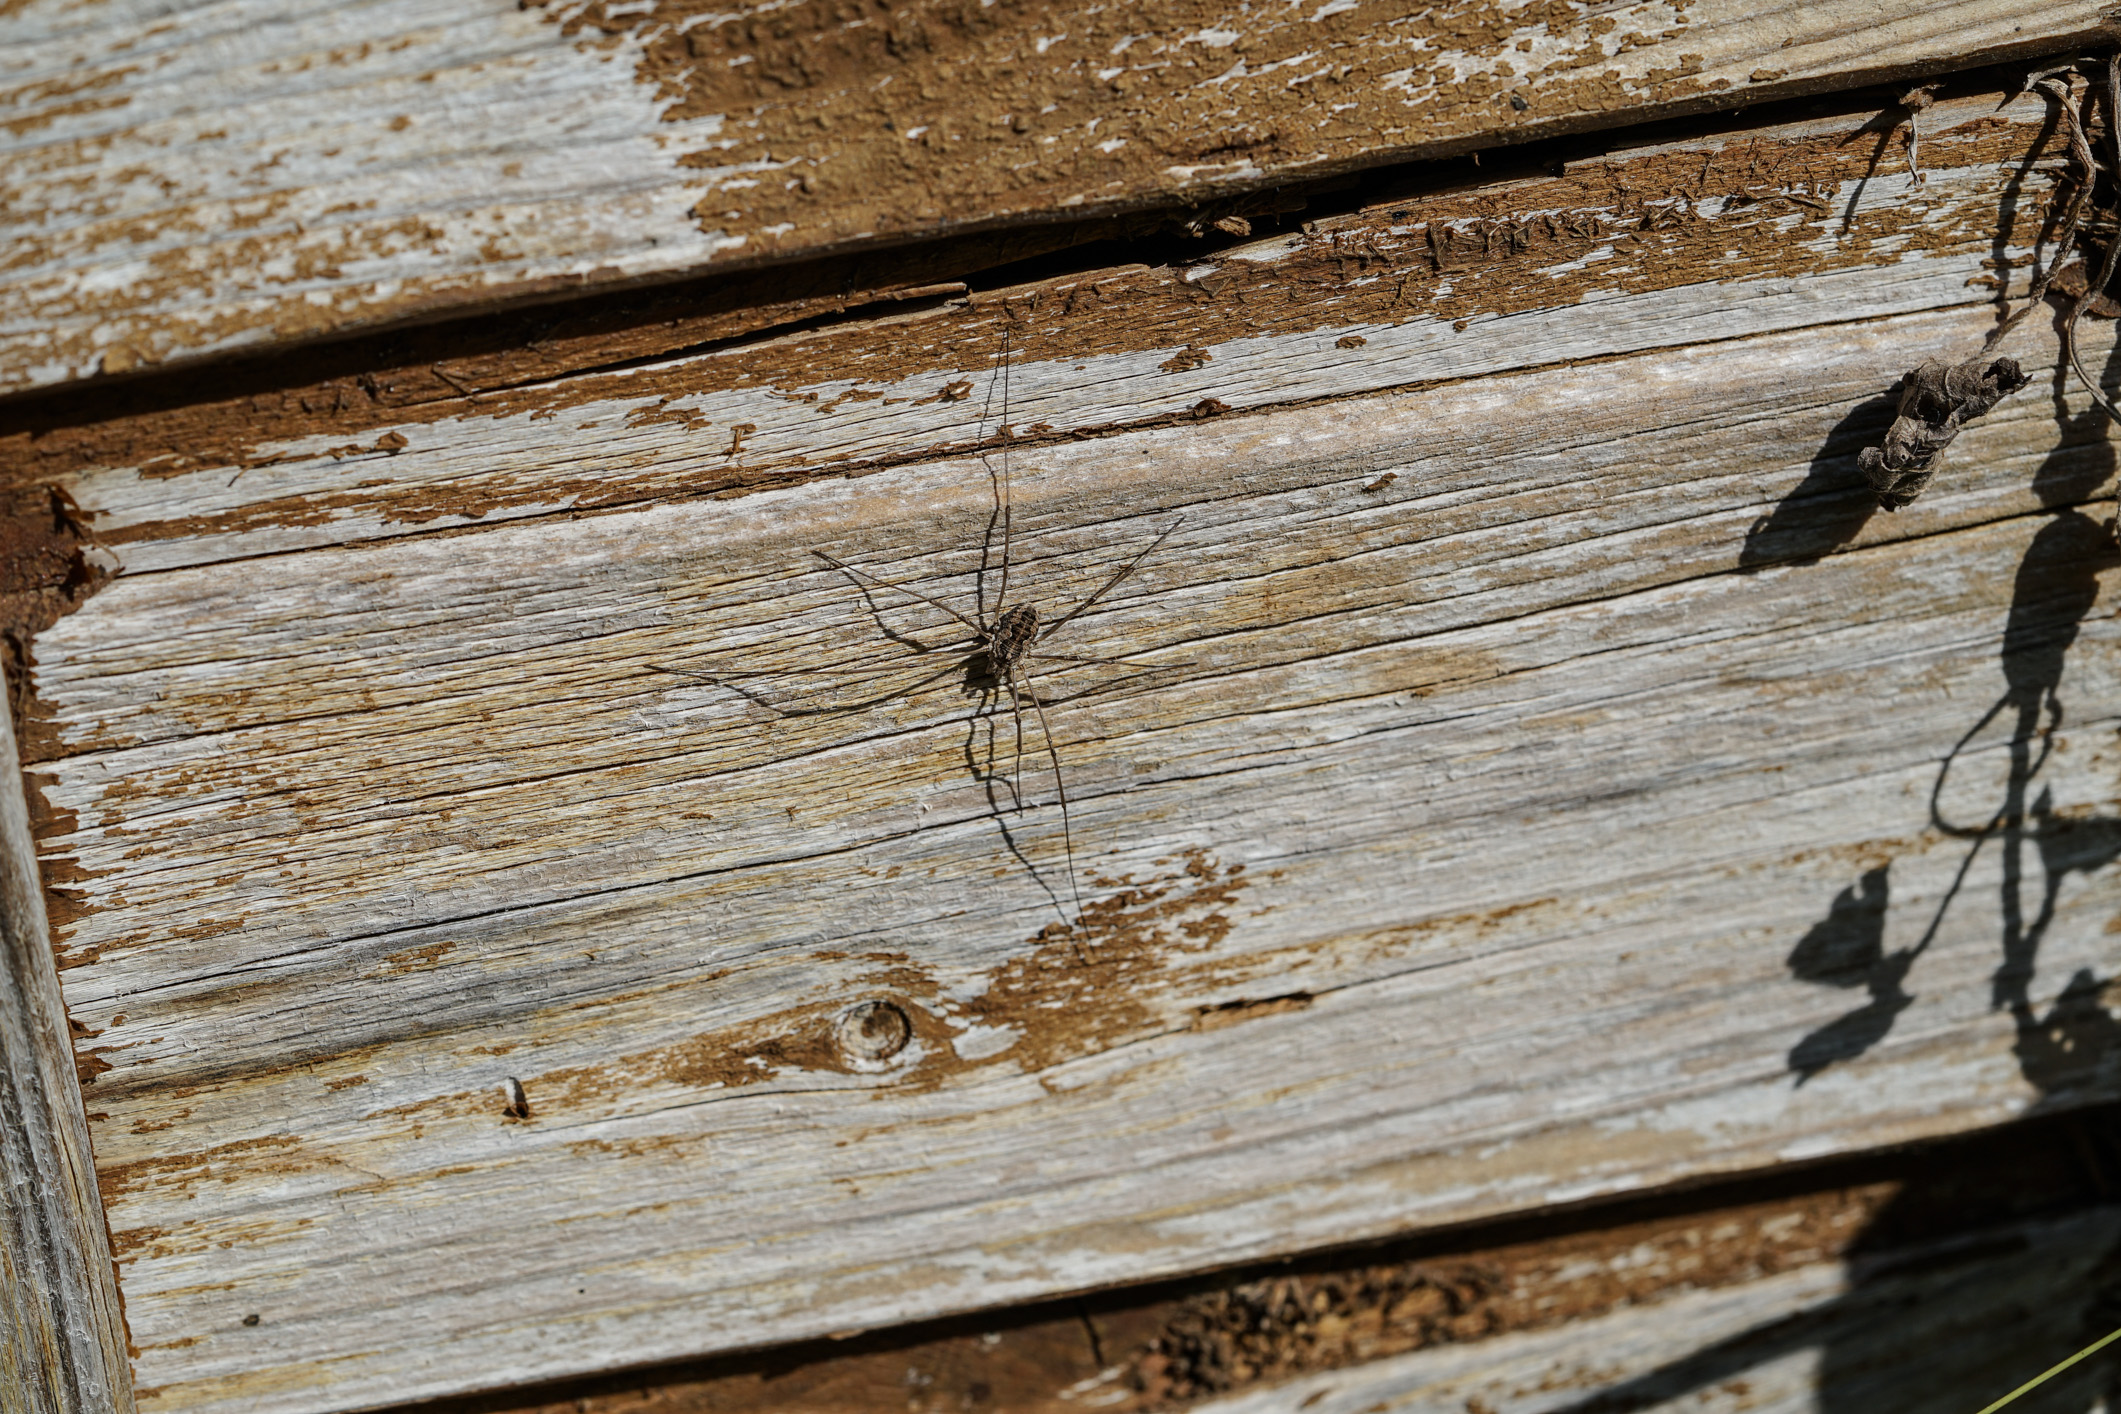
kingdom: Animalia
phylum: Arthropoda
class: Arachnida
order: Opiliones
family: Phalangiidae
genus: Mitopus
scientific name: Mitopus morio
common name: Saddleback harvestman
